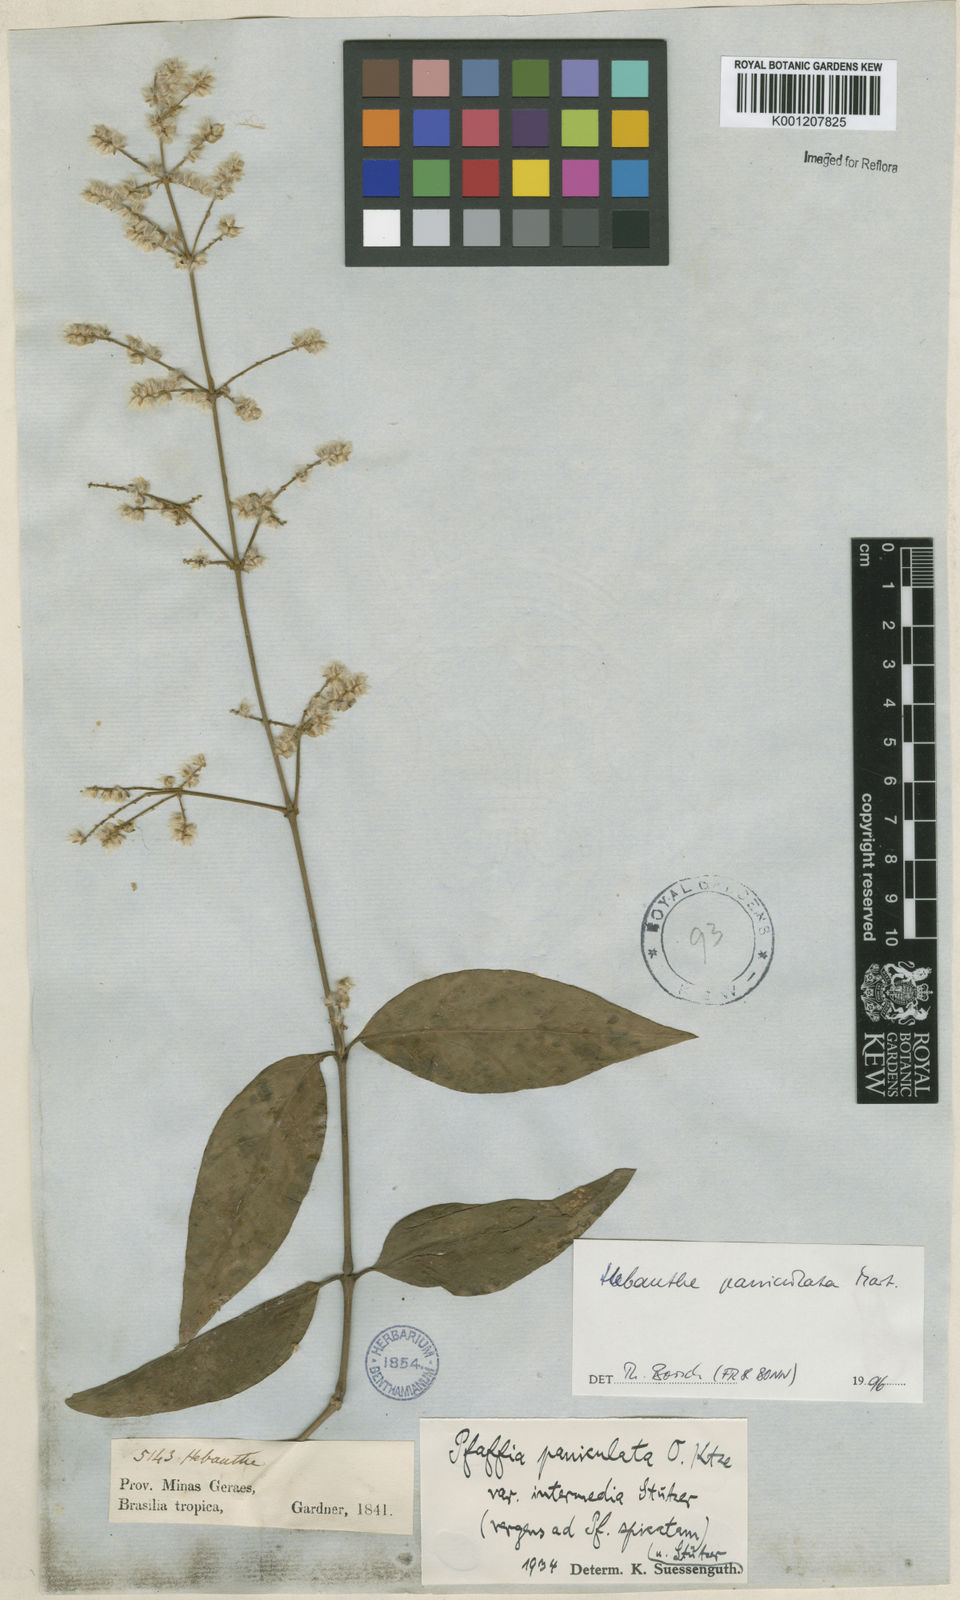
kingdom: Plantae
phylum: Tracheophyta
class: Magnoliopsida
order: Caryophyllales
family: Amaranthaceae
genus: Hebanthe
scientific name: Hebanthe erianthos
